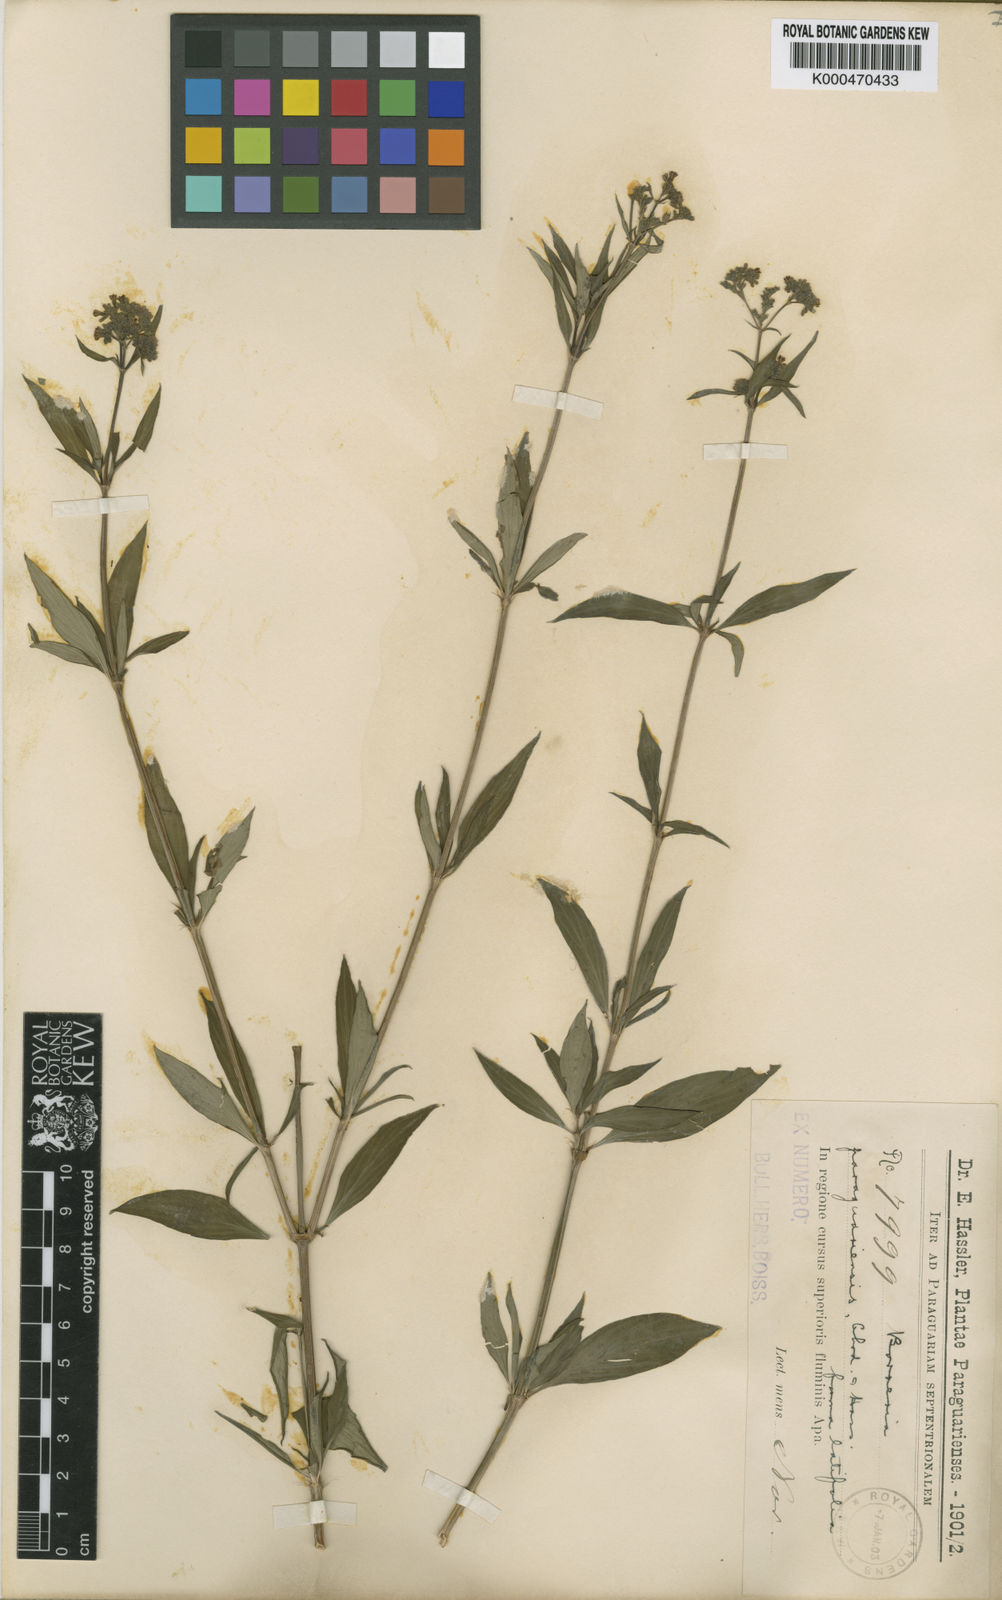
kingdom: Plantae
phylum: Tracheophyta
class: Magnoliopsida
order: Gentianales
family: Rubiaceae
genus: Galianthe
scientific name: Galianthe laxa
